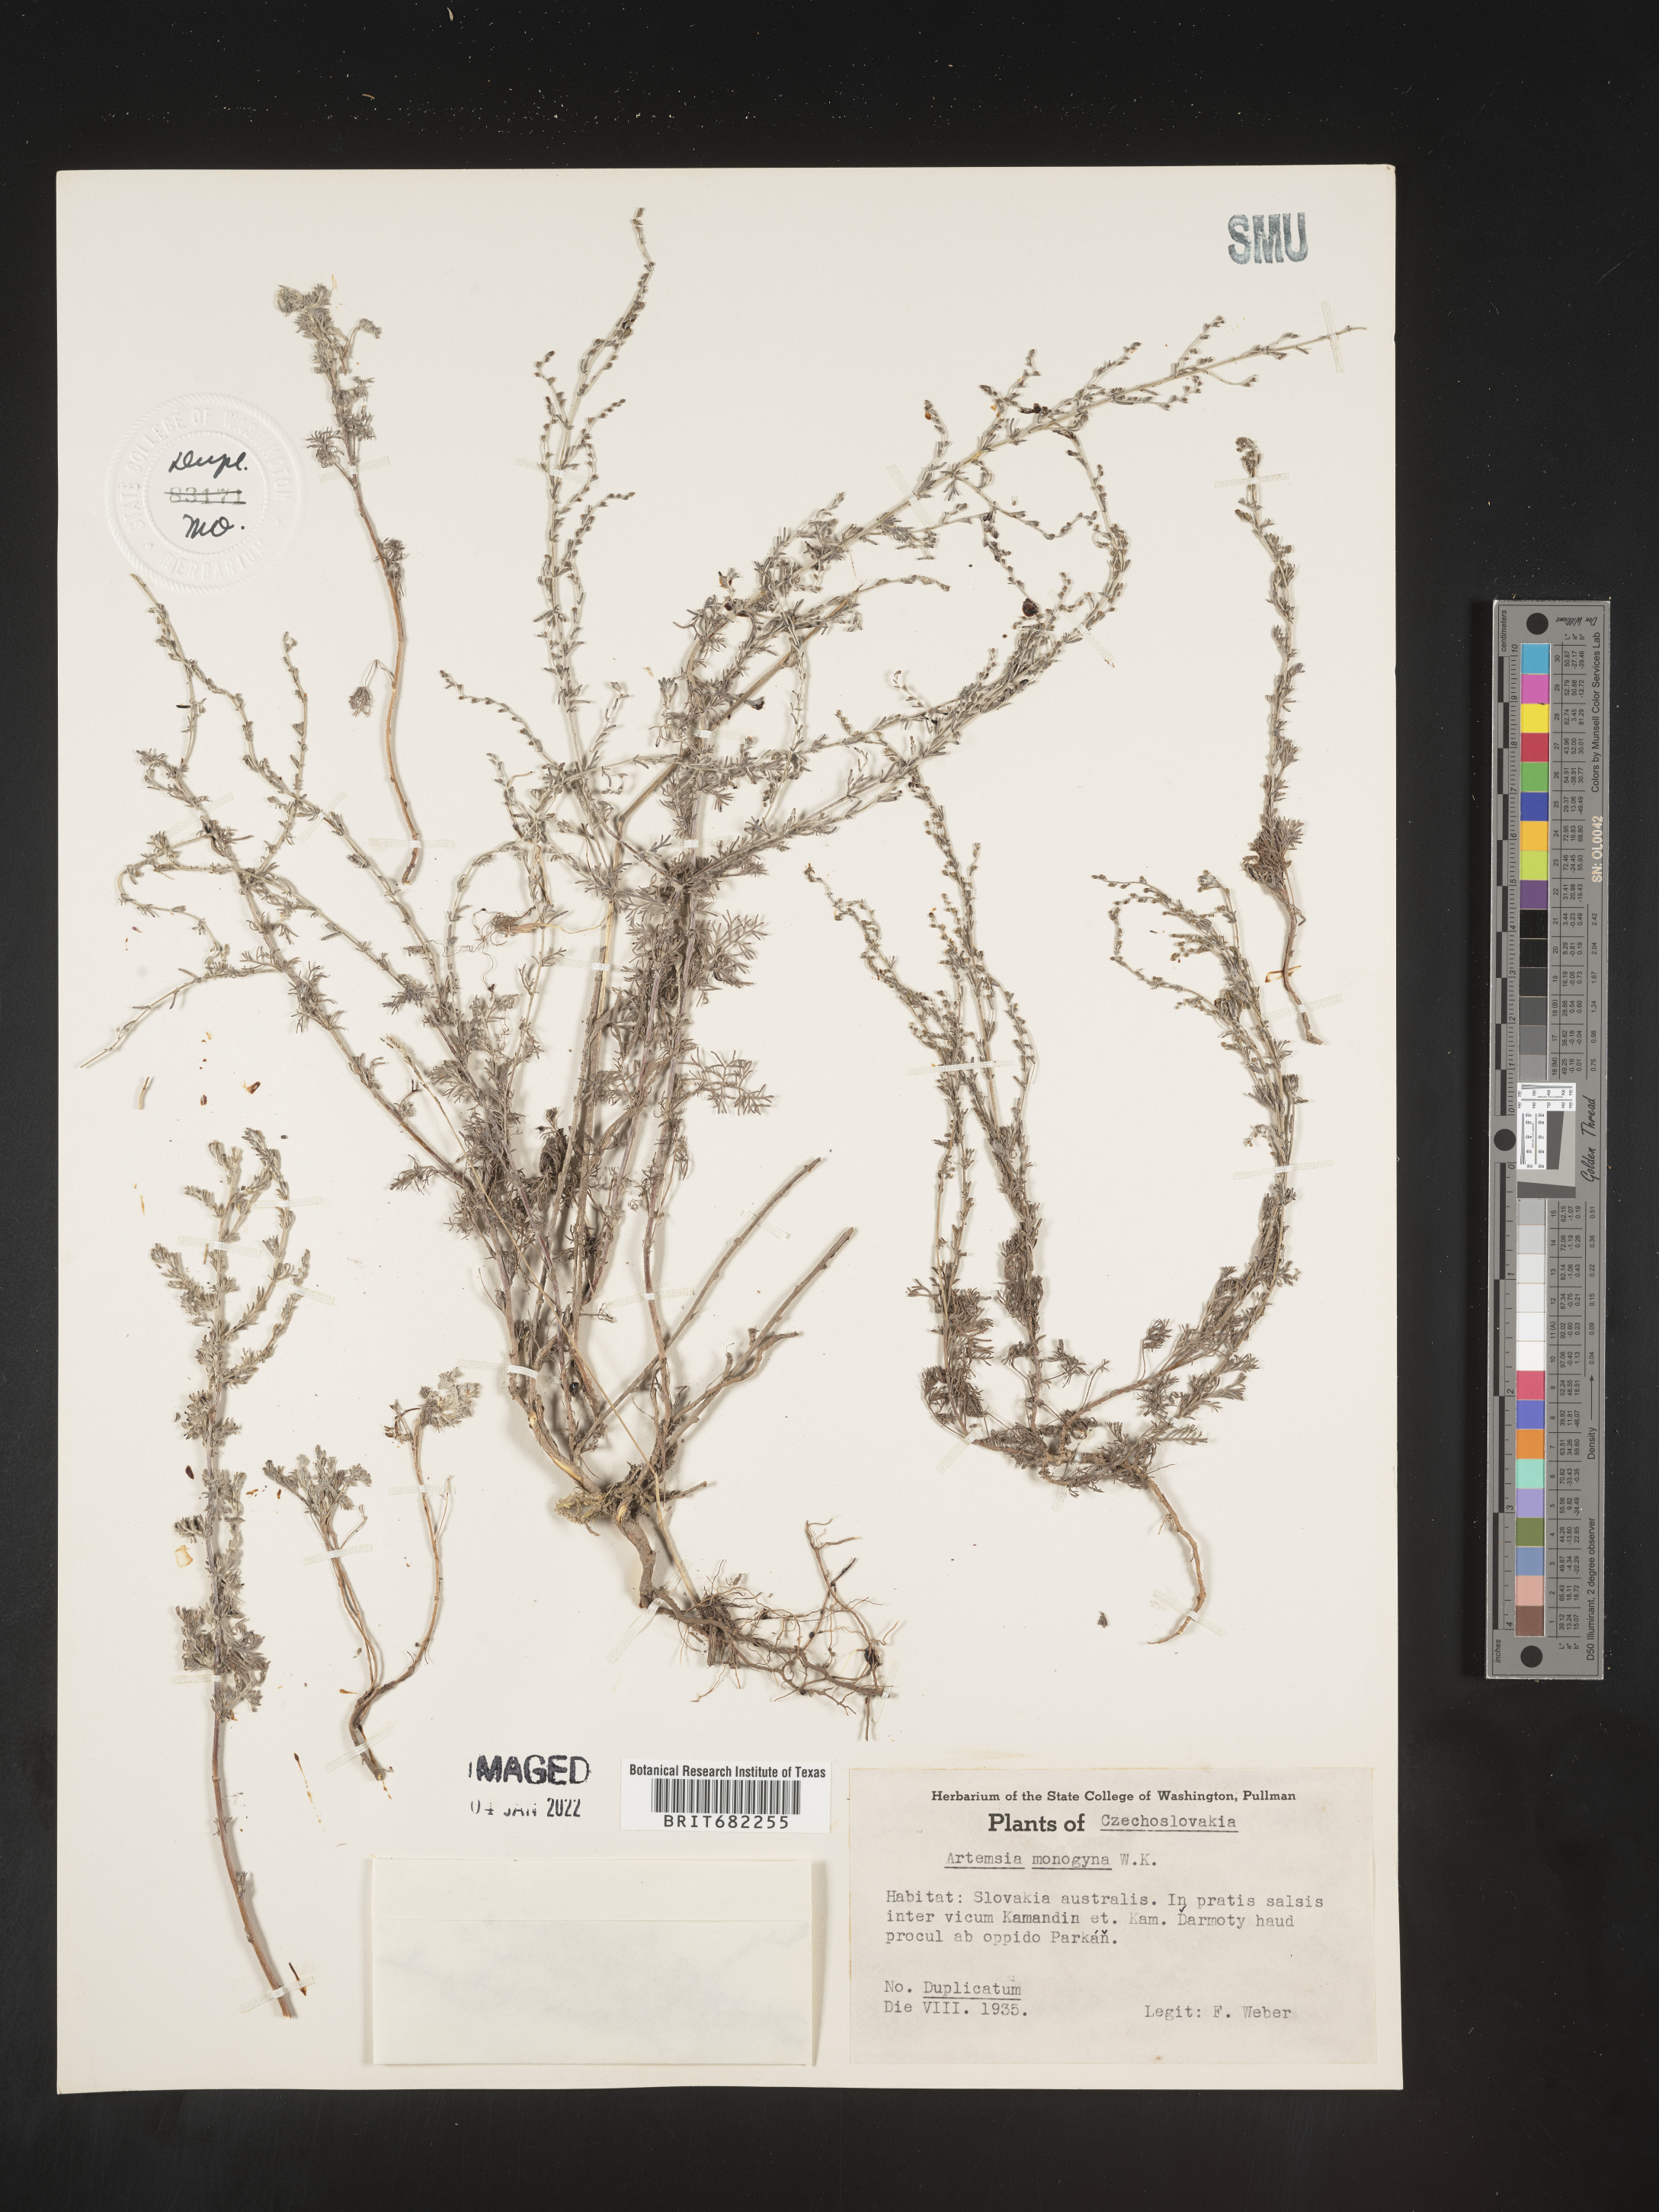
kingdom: Plantae
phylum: Tracheophyta
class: Magnoliopsida
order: Asterales
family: Asteraceae
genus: Artemisia
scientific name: Artemisia
